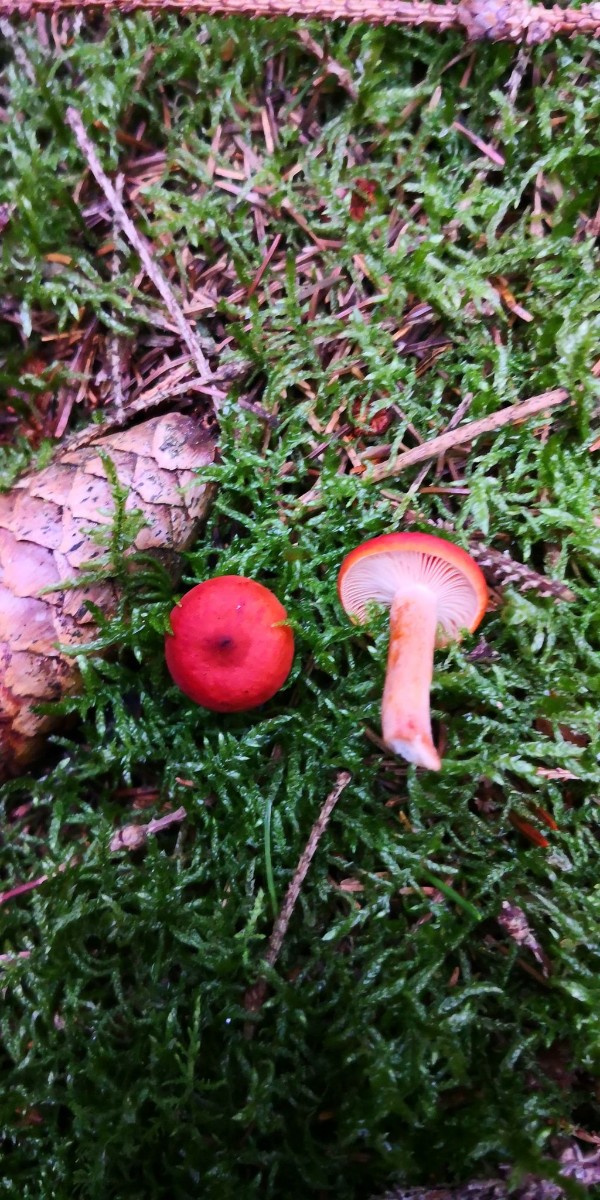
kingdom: Fungi
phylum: Basidiomycota
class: Agaricomycetes
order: Russulales
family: Russulaceae
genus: Lactarius
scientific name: Lactarius
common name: mælkehat
